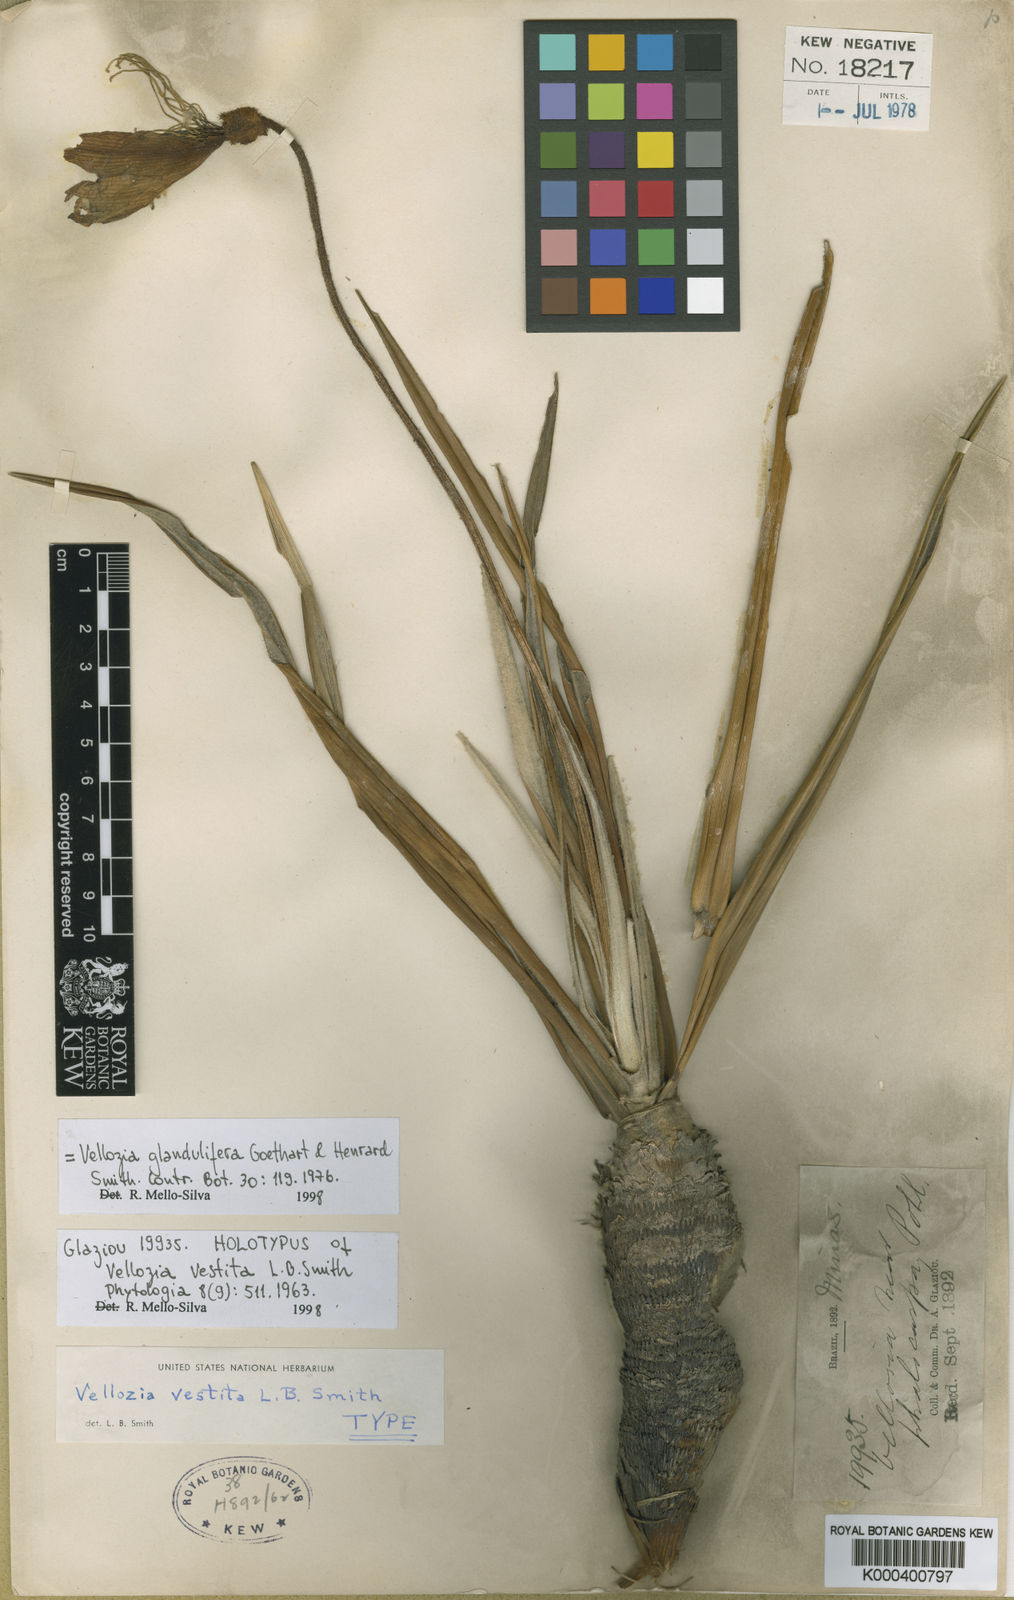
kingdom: Plantae
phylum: Tracheophyta
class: Liliopsida
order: Pandanales
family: Velloziaceae
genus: Vellozia
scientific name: Vellozia glandulifera
